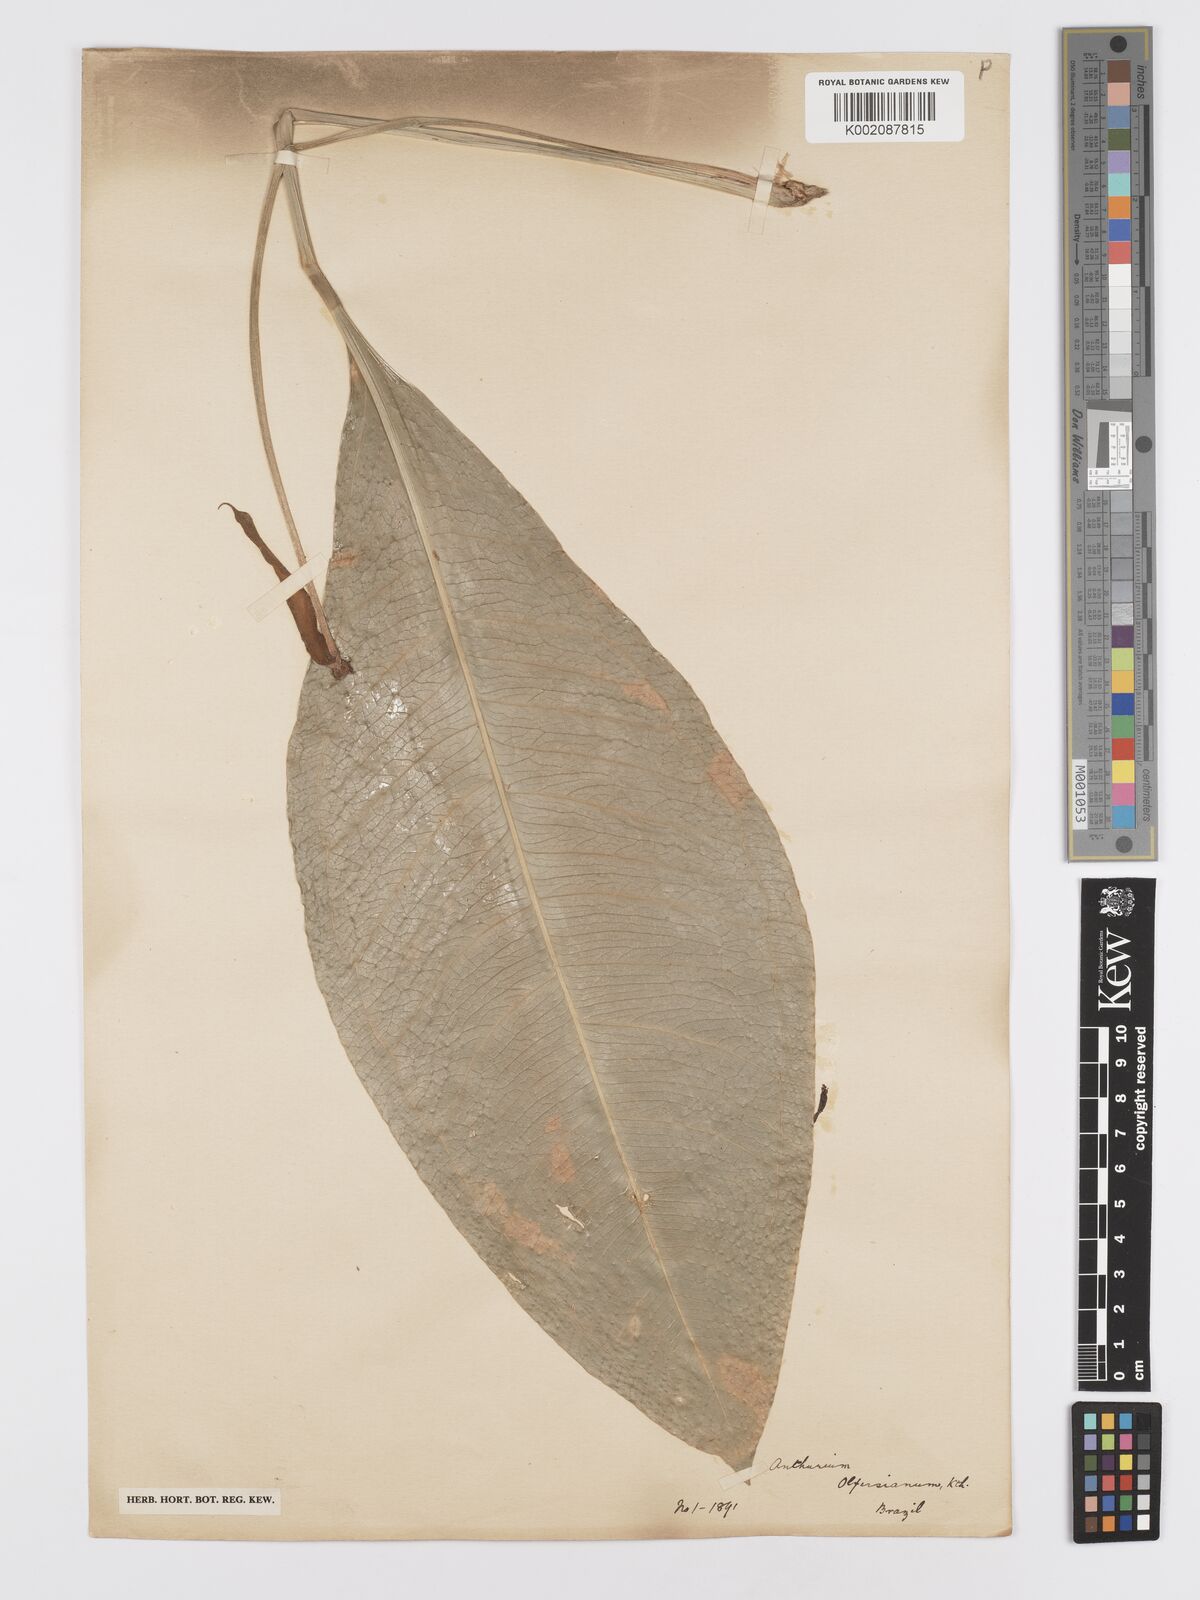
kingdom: Plantae
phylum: Tracheophyta
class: Liliopsida
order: Alismatales
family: Araceae
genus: Anthurium
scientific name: Anthurium parasiticum
